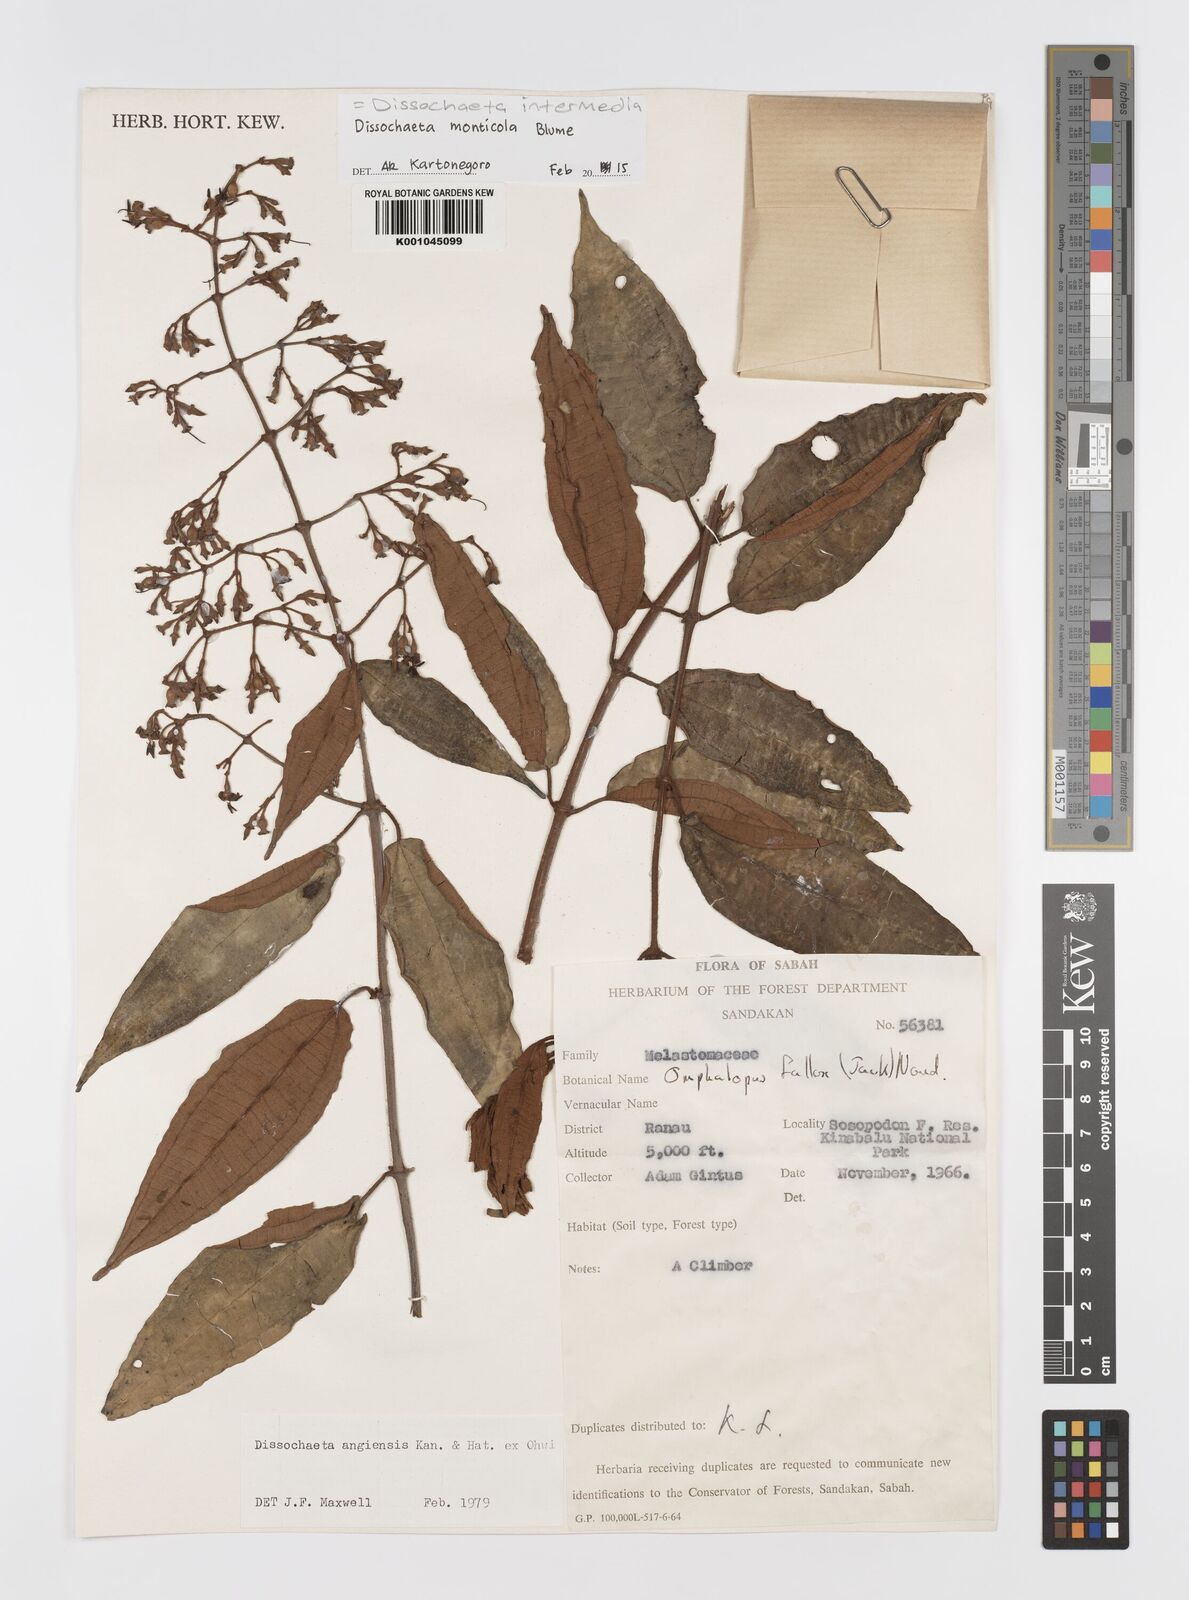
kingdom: Plantae
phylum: Tracheophyta
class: Magnoliopsida
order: Myrtales
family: Melastomataceae
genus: Dissochaeta
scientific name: Dissochaeta intermedia
